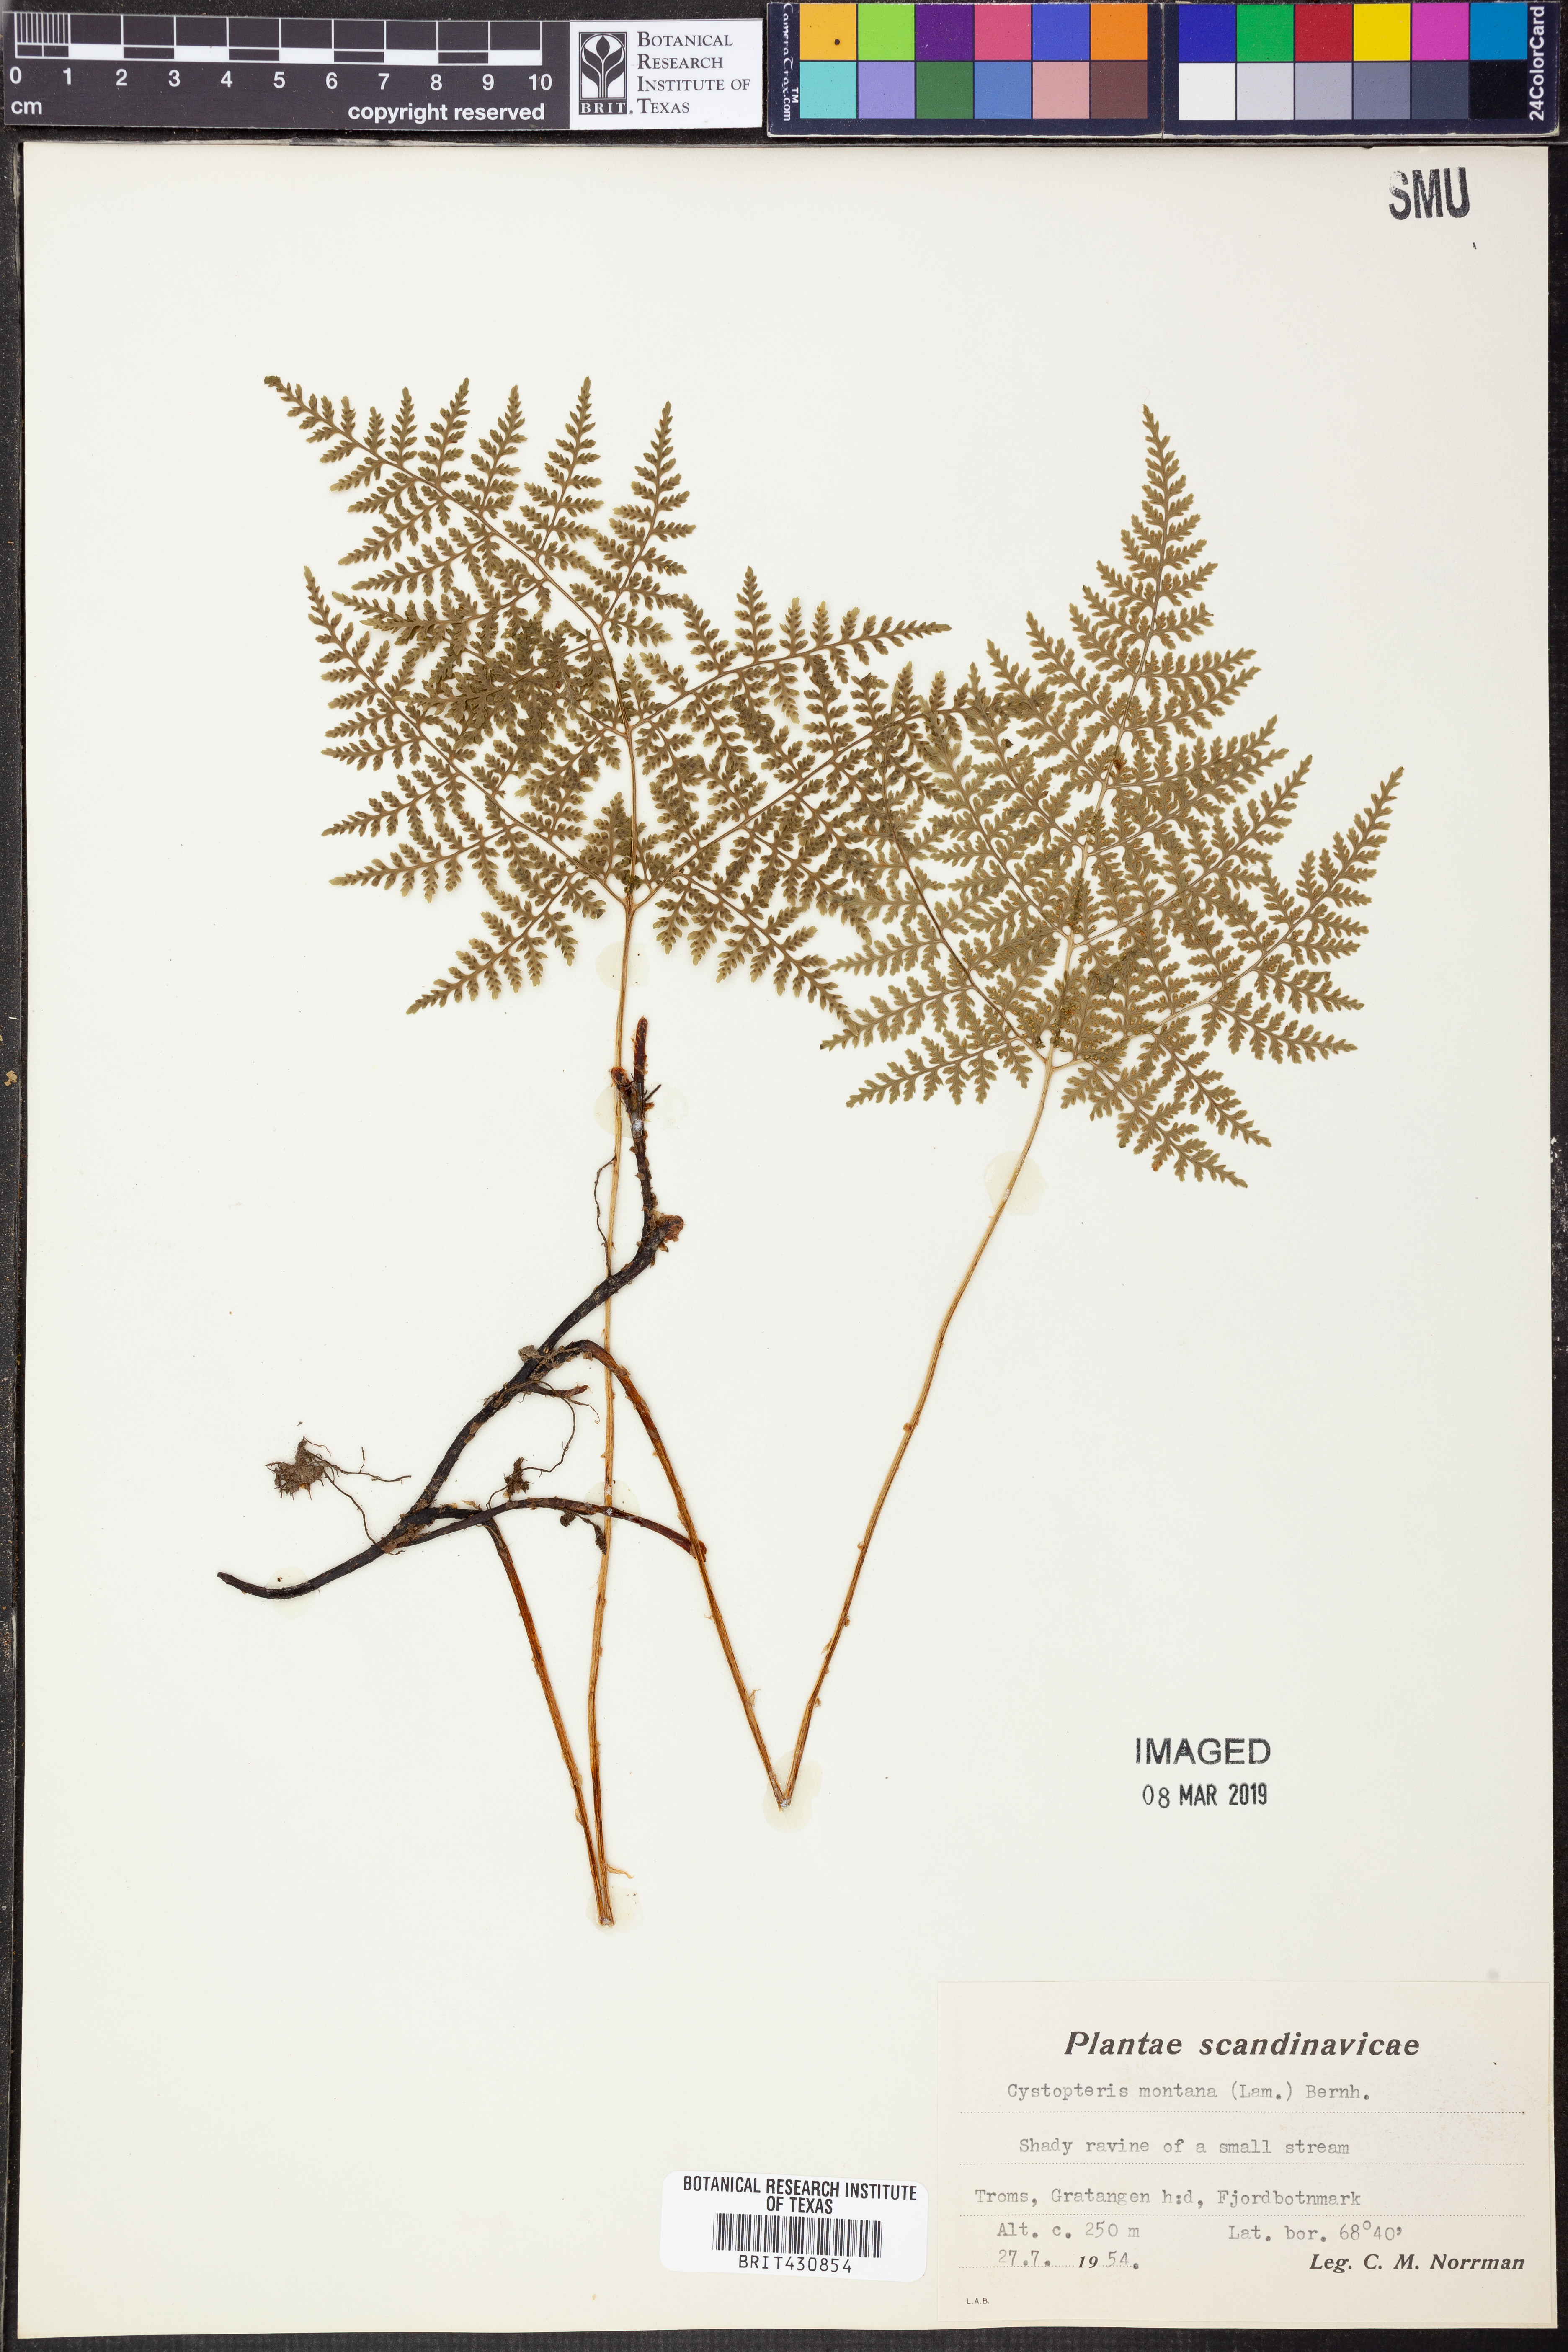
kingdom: Plantae
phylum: Tracheophyta
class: Polypodiopsida
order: Polypodiales
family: Cystopteridaceae
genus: Cystopteris
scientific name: Cystopteris montana
